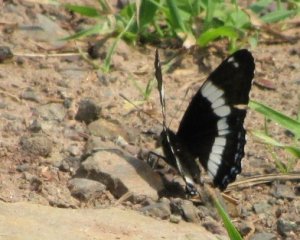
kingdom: Animalia
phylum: Arthropoda
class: Insecta
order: Lepidoptera
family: Nymphalidae
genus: Limenitis
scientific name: Limenitis arthemis
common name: Red-spotted Admiral
